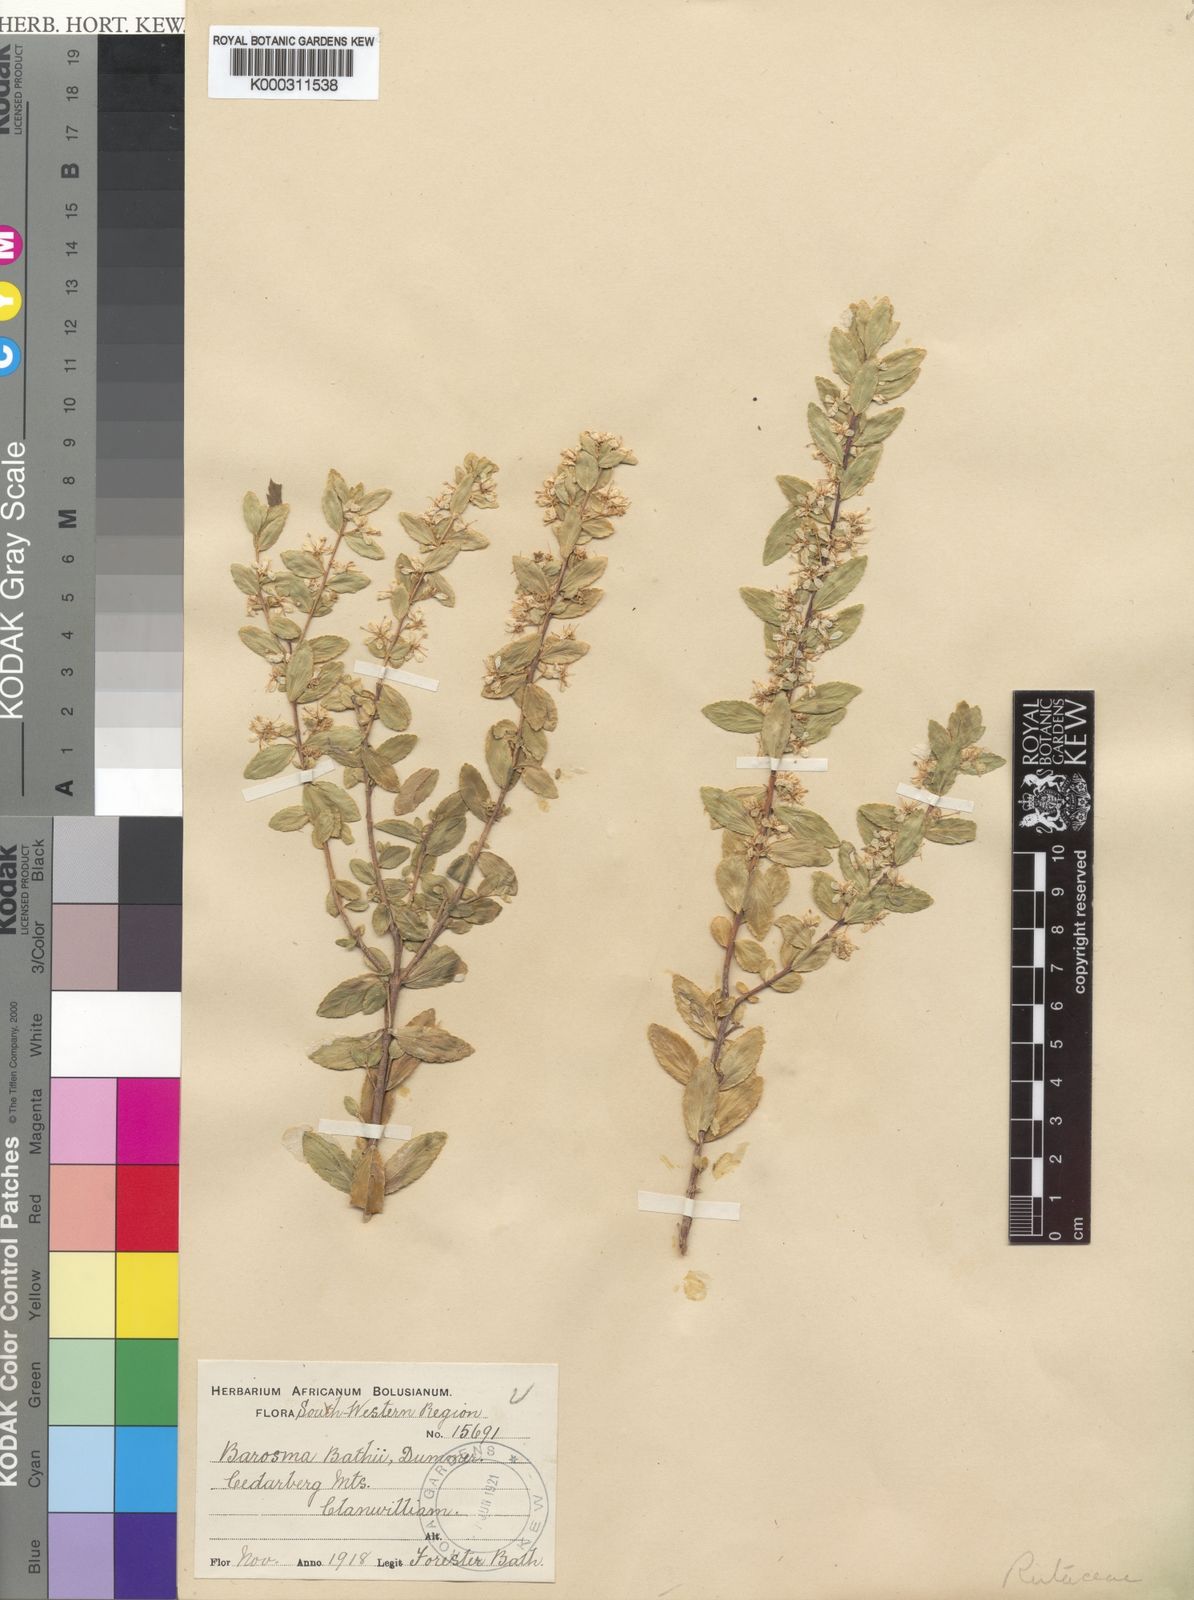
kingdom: Plantae
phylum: Tracheophyta
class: Magnoliopsida
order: Sapindales
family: Rutaceae
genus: Agathosma
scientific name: Agathosma bathii
